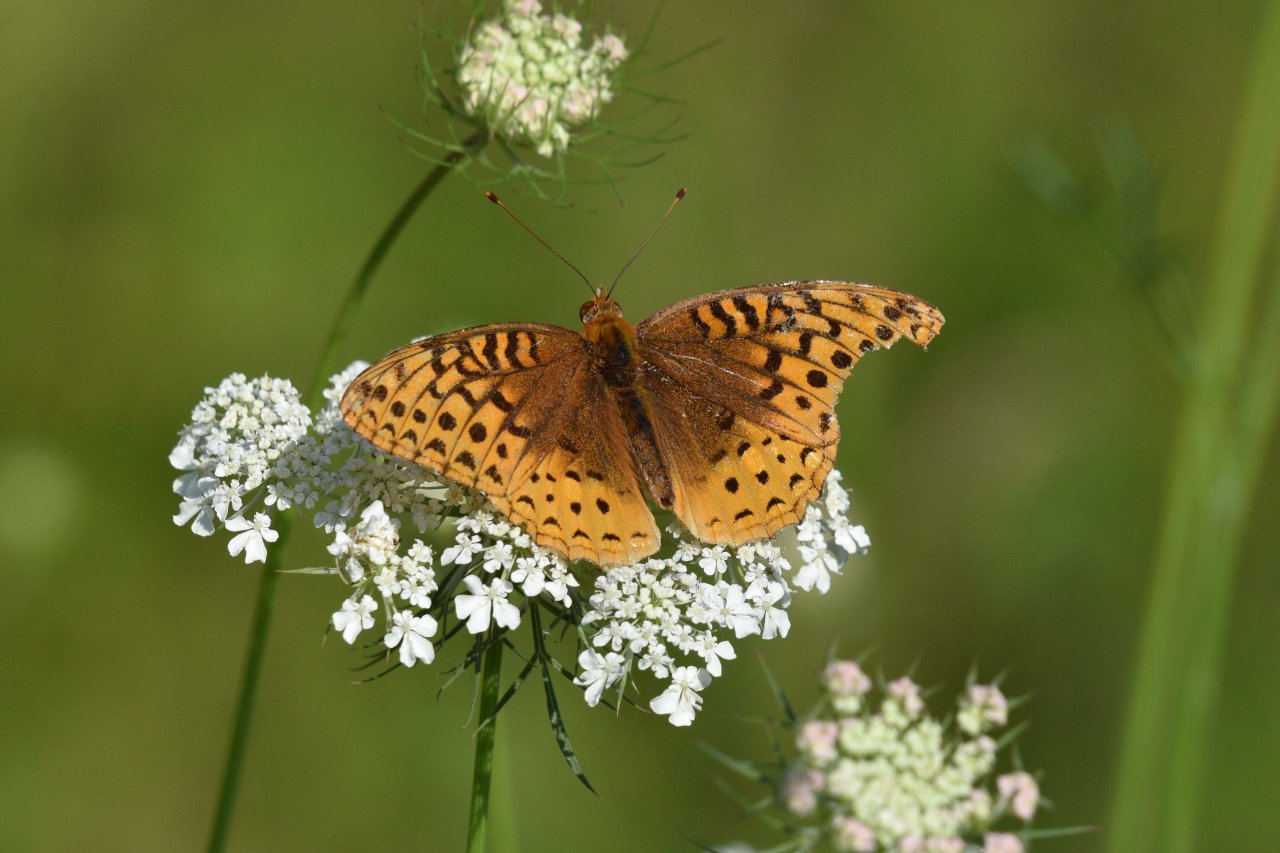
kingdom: Animalia
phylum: Arthropoda
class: Insecta
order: Lepidoptera
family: Nymphalidae
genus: Speyeria
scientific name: Speyeria cybele
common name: Great Spangled Fritillary
